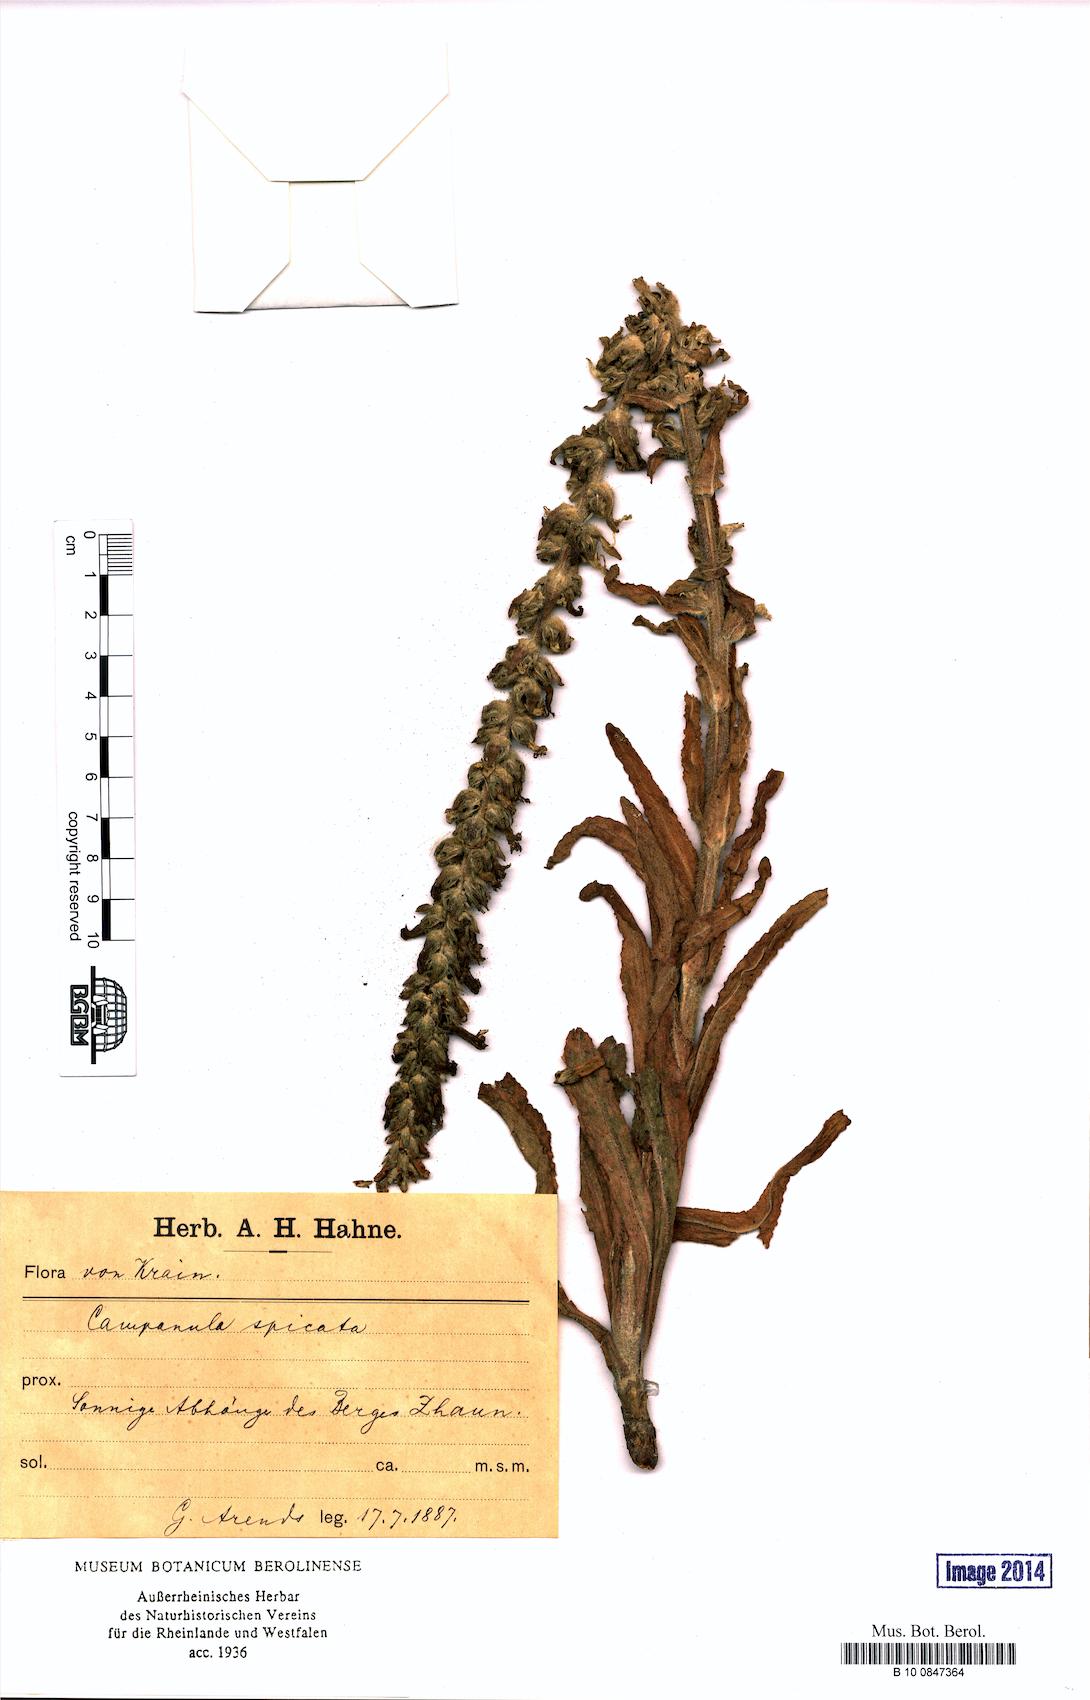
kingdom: Plantae
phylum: Tracheophyta
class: Magnoliopsida
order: Asterales
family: Campanulaceae
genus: Campanula
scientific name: Campanula spicata
